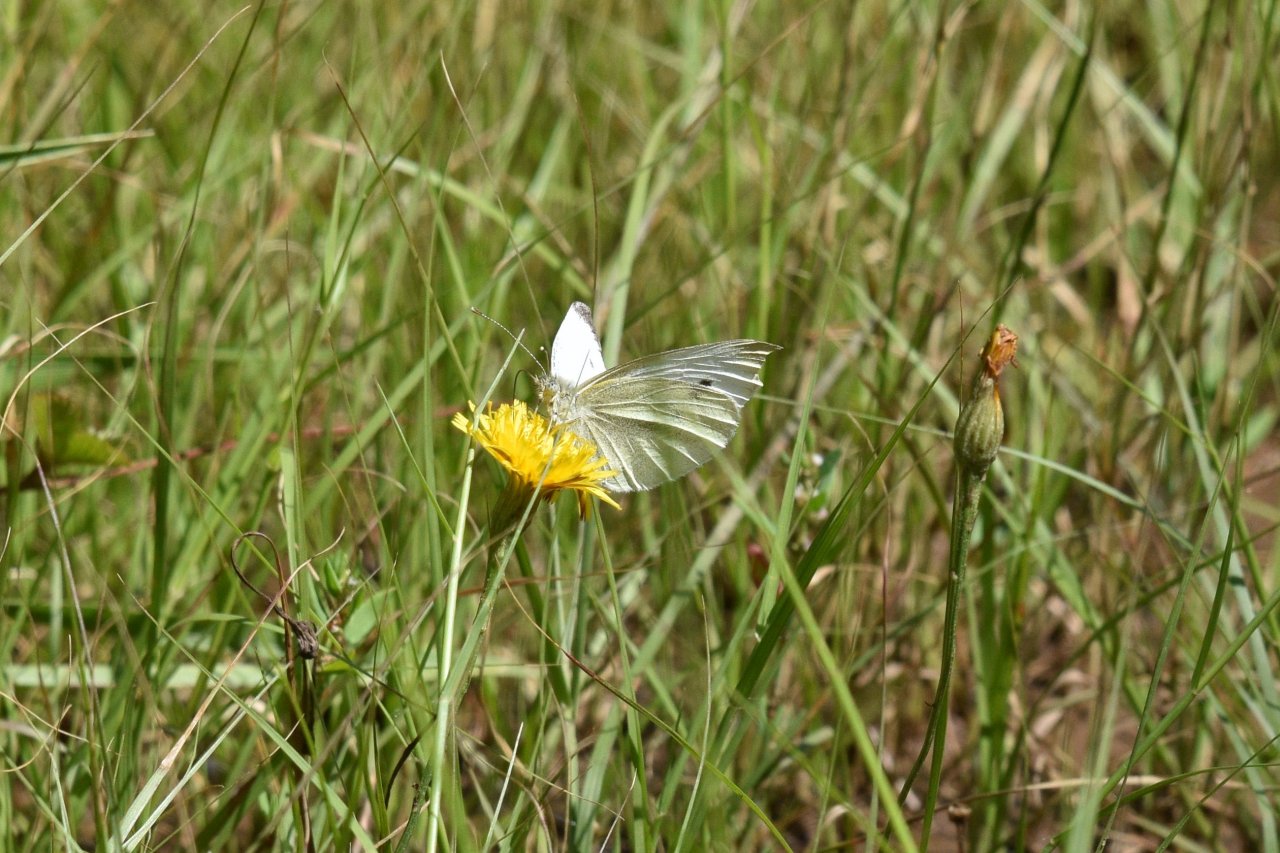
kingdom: Animalia
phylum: Arthropoda
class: Insecta
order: Lepidoptera
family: Pieridae
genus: Pieris
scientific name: Pieris rapae
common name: Cabbage White
